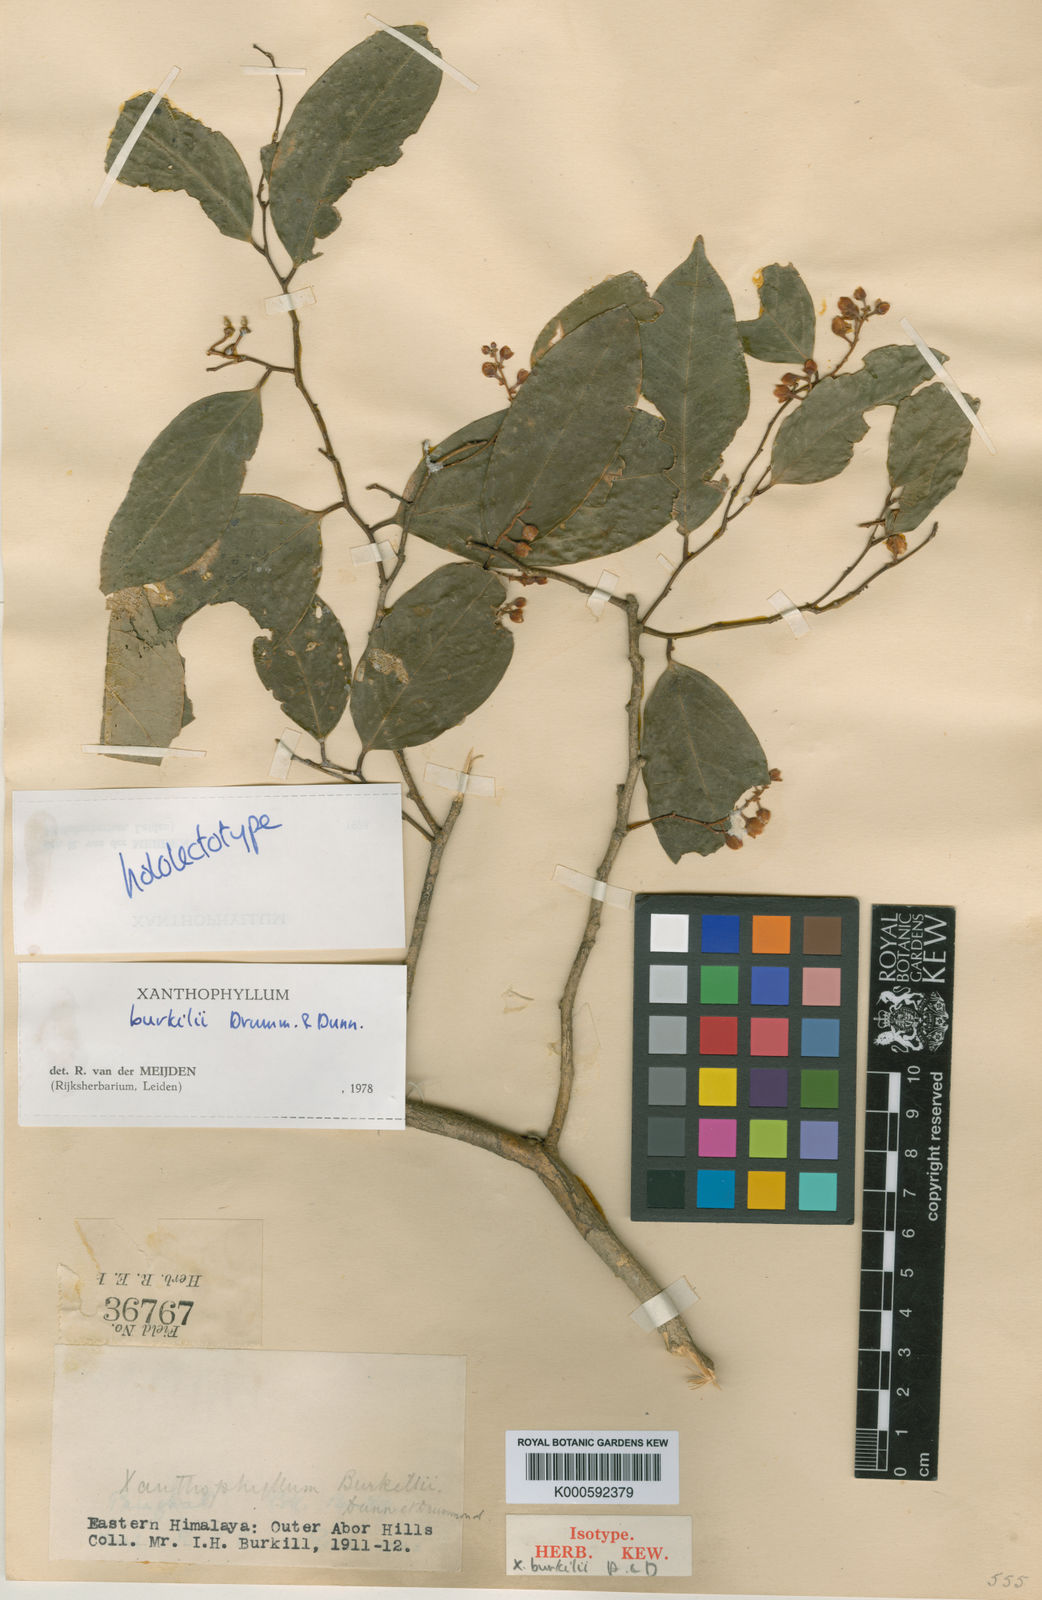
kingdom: Plantae
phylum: Tracheophyta
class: Magnoliopsida
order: Fabales
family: Polygalaceae
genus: Xanthophyllum
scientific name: Xanthophyllum burkillii
